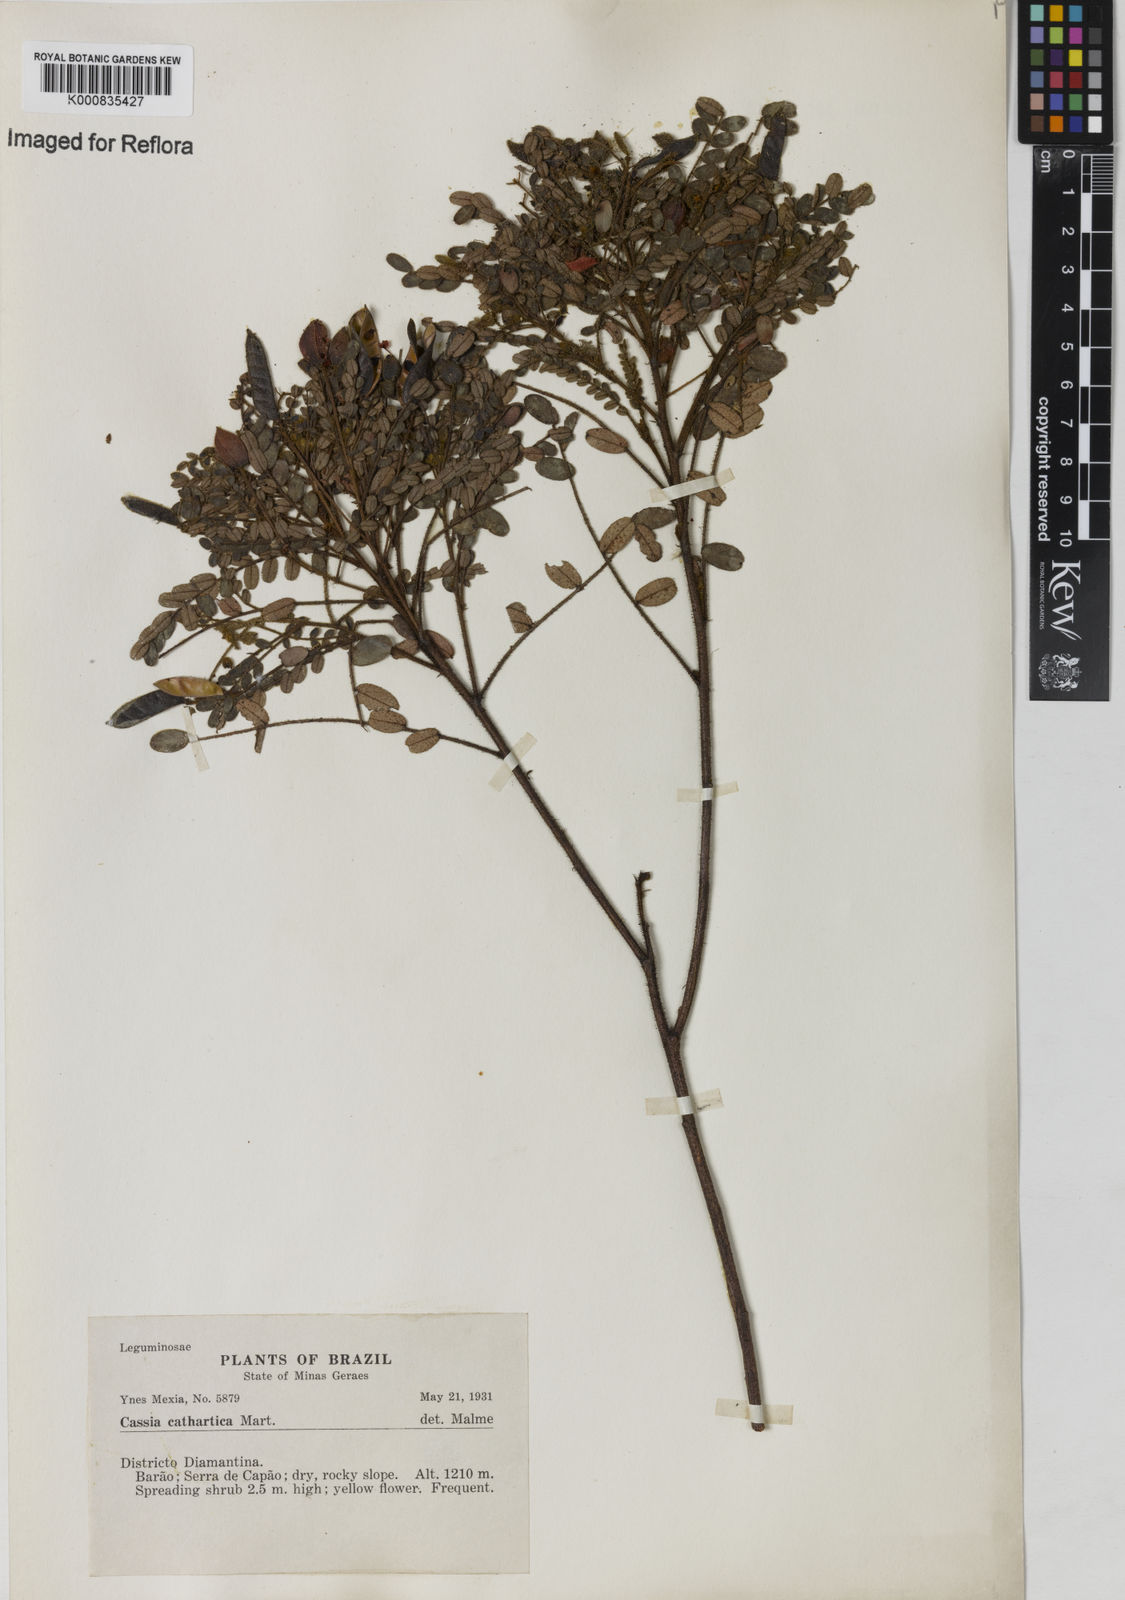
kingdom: Plantae
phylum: Tracheophyta
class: Magnoliopsida
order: Fabales
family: Fabaceae
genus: Chamaecrista
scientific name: Chamaecrista cathartica
